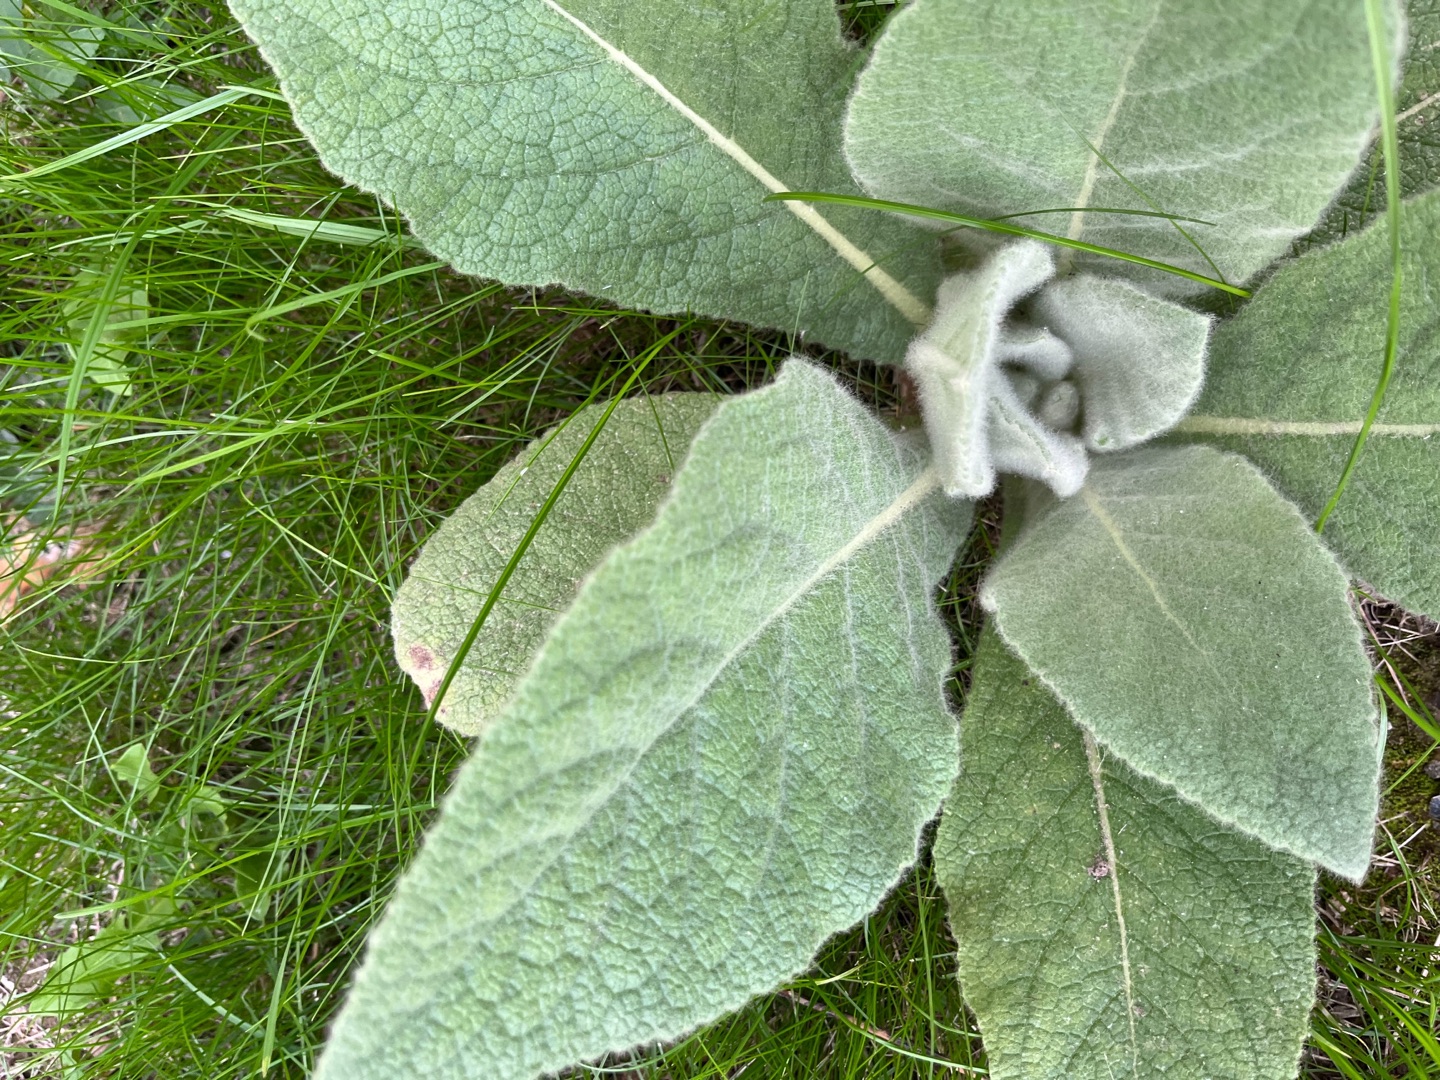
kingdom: Plantae
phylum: Tracheophyta
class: Magnoliopsida
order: Lamiales
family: Scrophulariaceae
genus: Verbascum
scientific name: Verbascum thapsus
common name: Filtbladet kongelys
